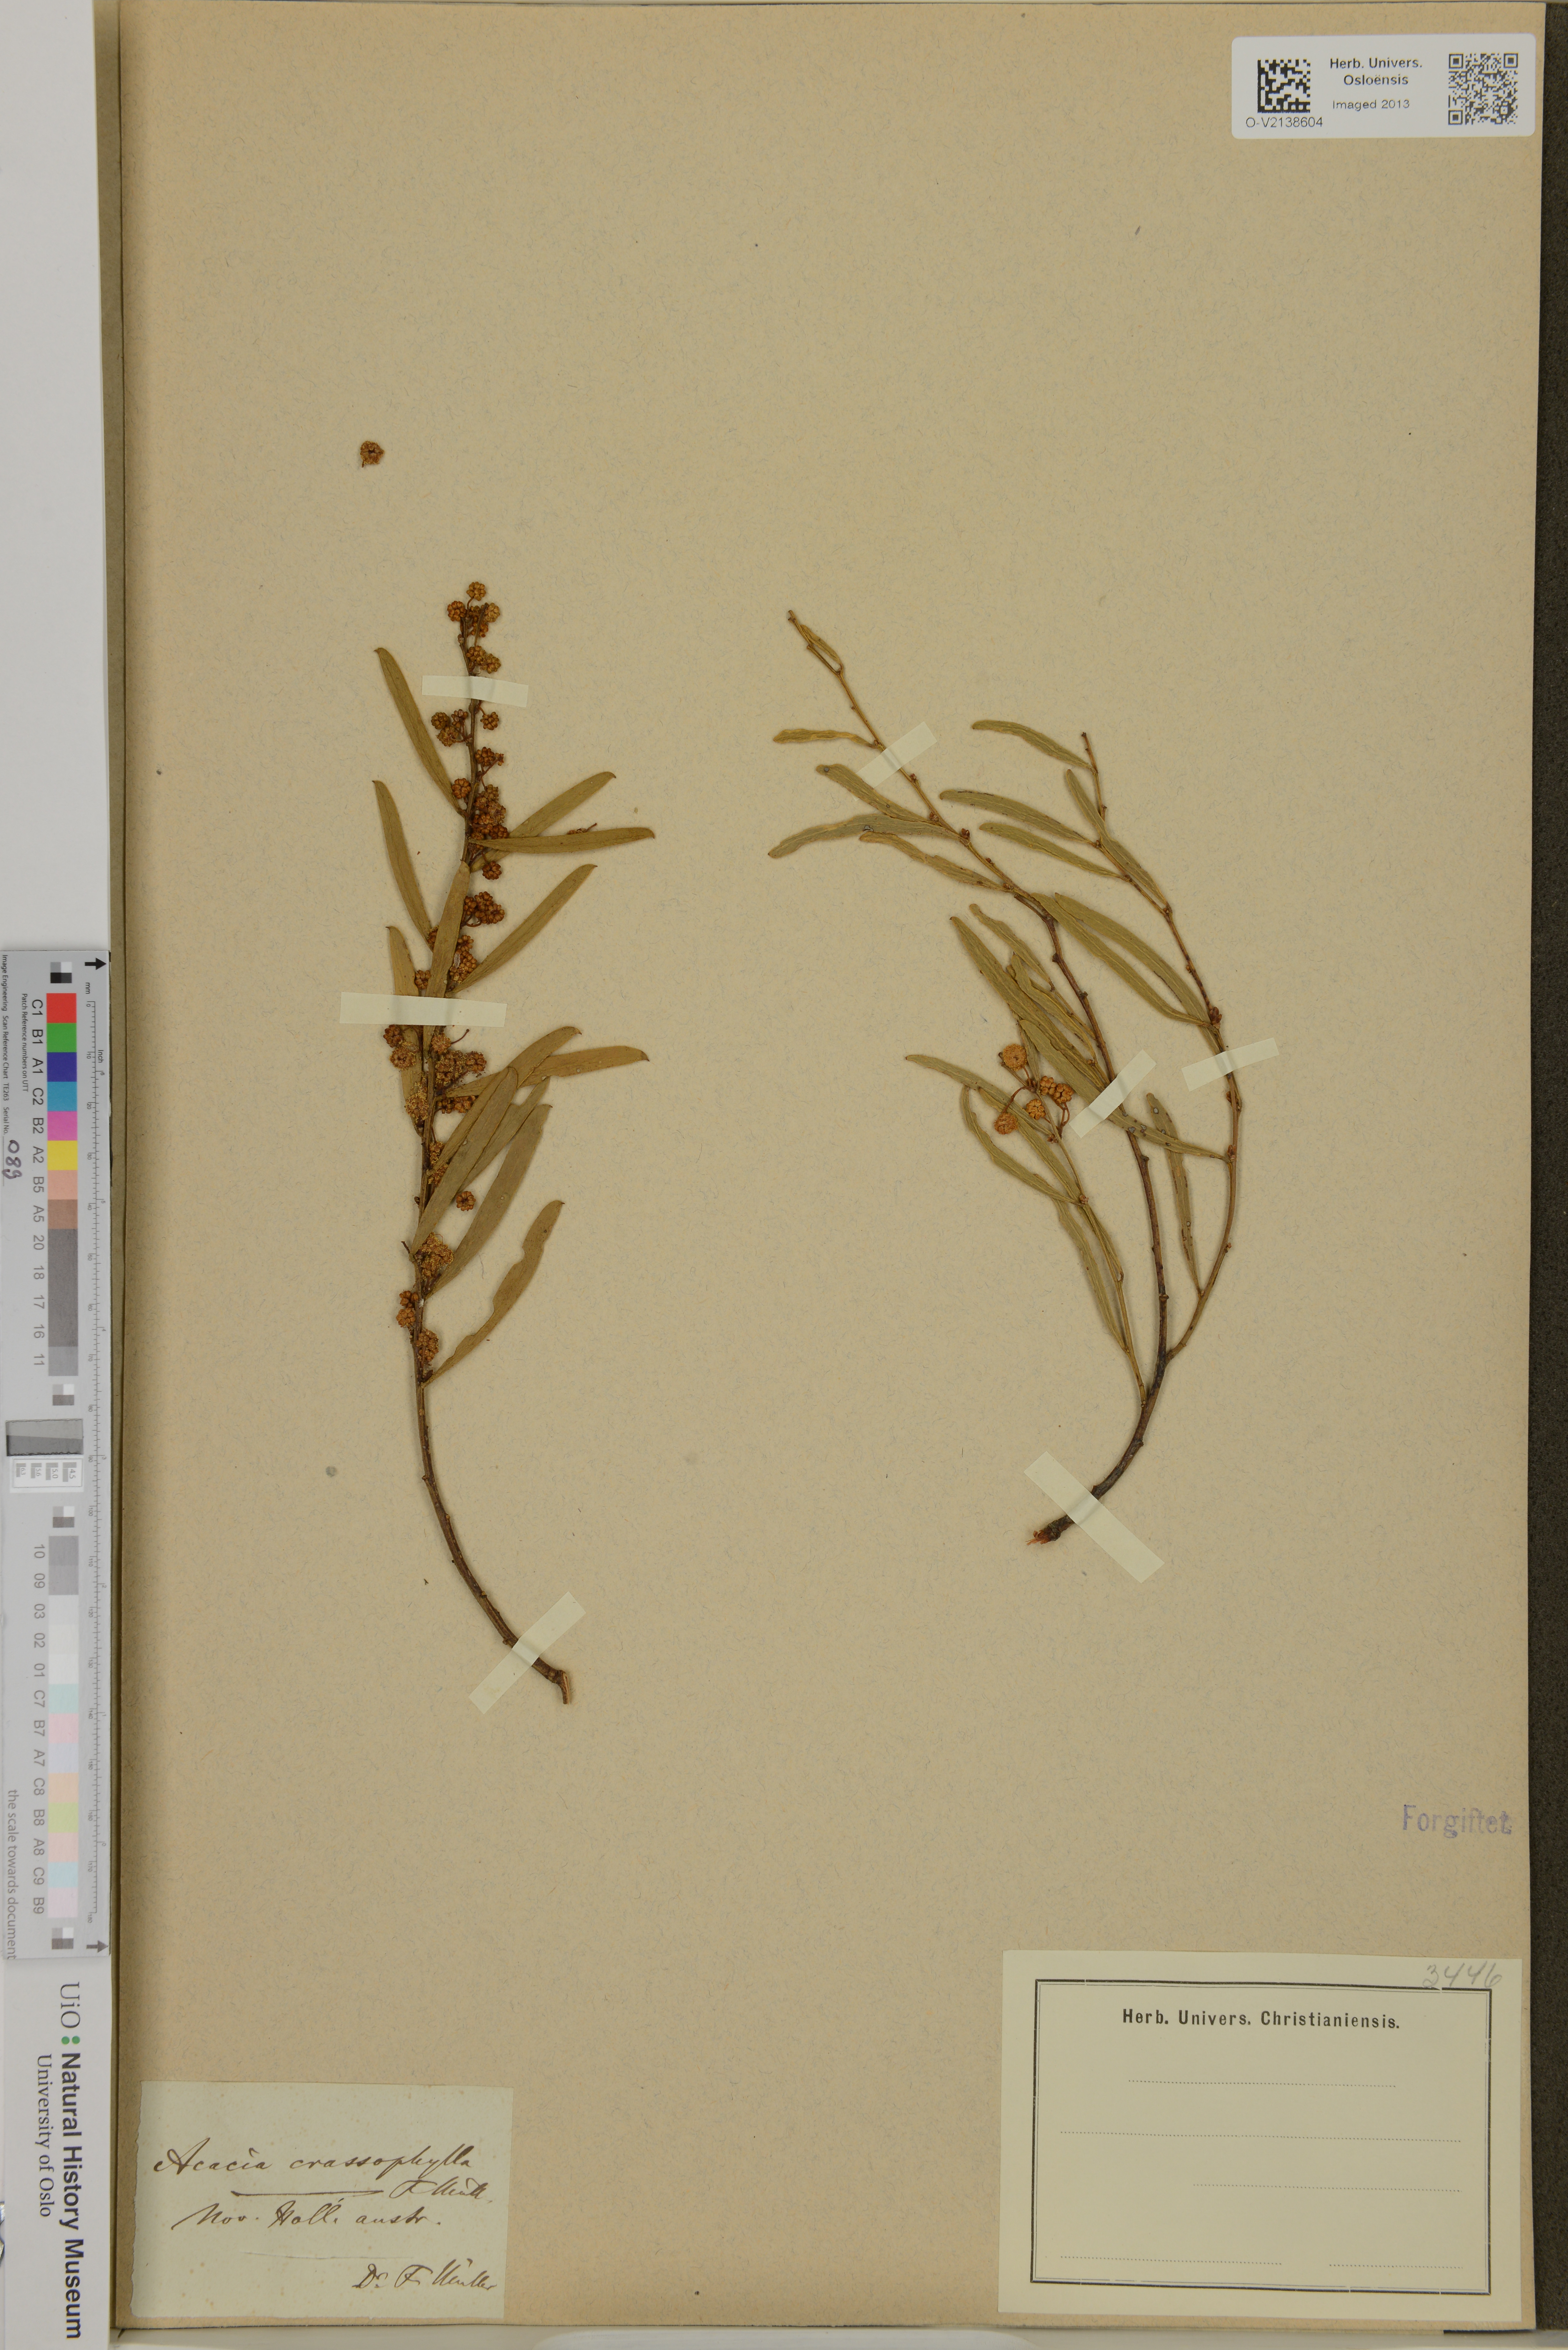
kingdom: Plantae
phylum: Tracheophyta
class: Magnoliopsida
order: Fabales
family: Fabaceae
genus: Acacia
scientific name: Acacia
